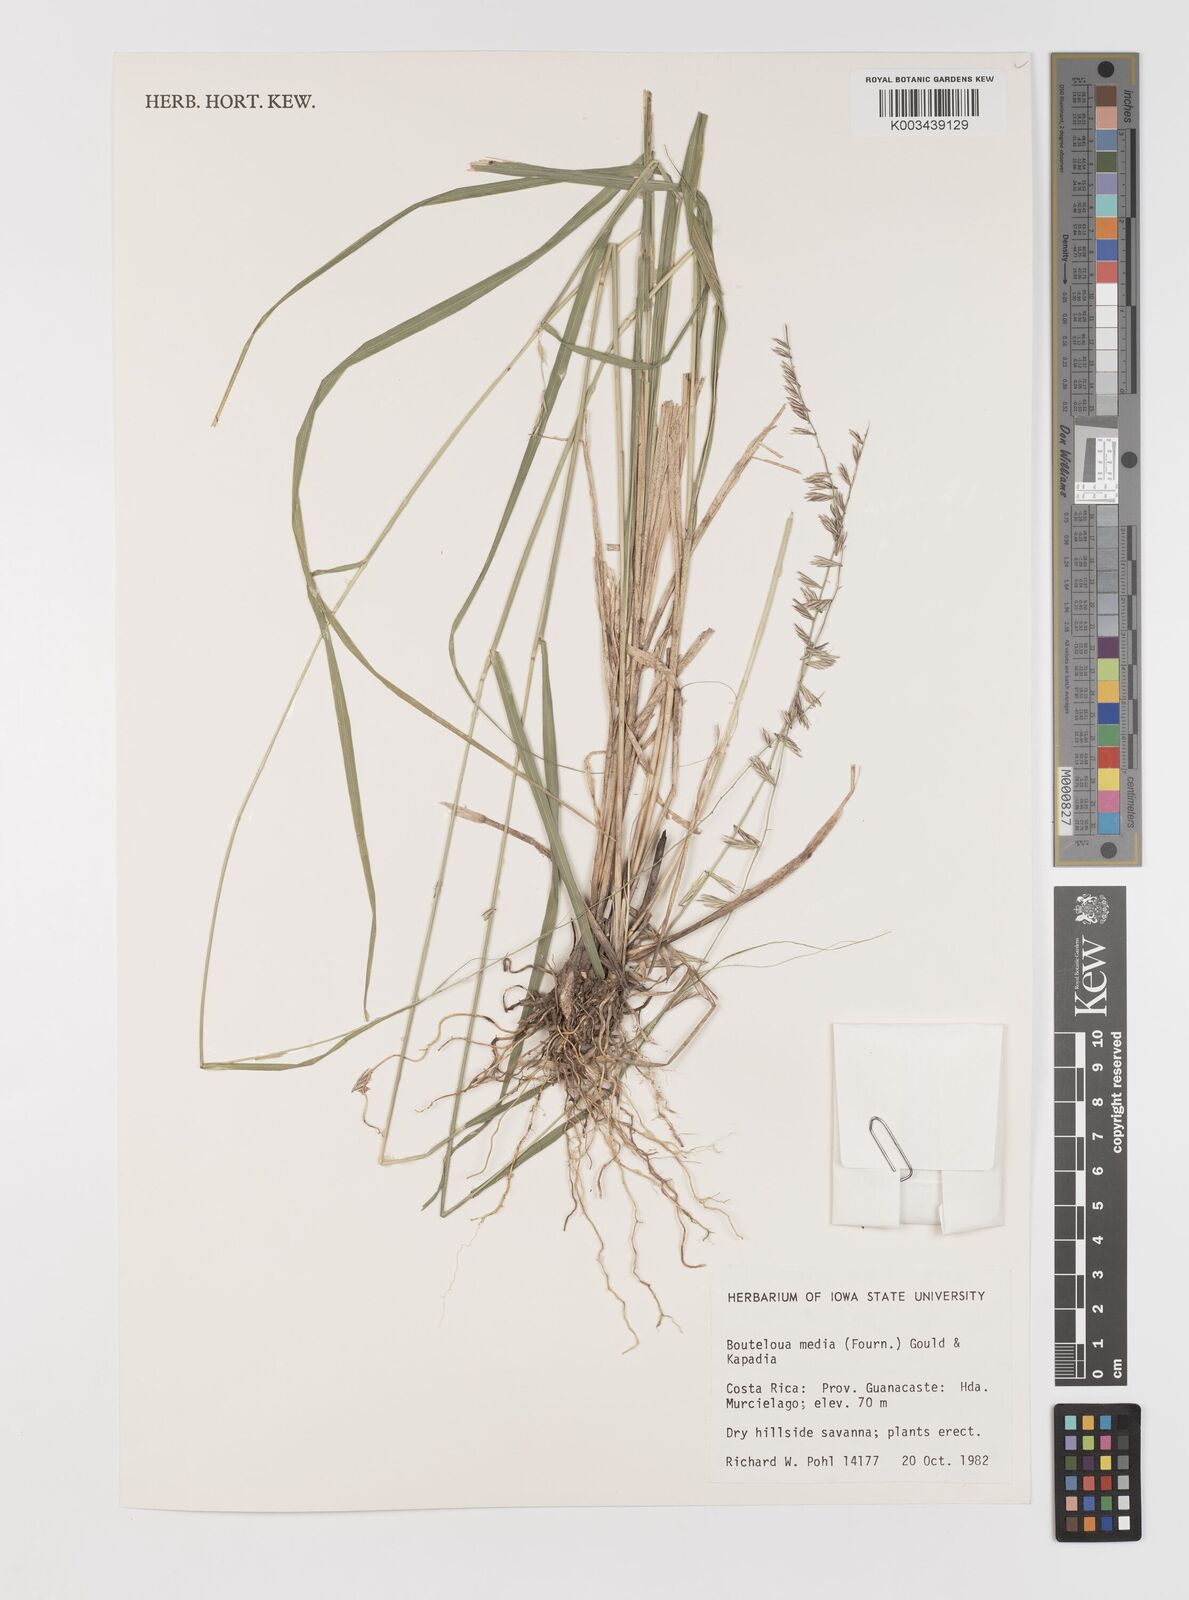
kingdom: Plantae
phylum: Tracheophyta
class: Liliopsida
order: Poales
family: Poaceae
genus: Bouteloua
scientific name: Bouteloua media
